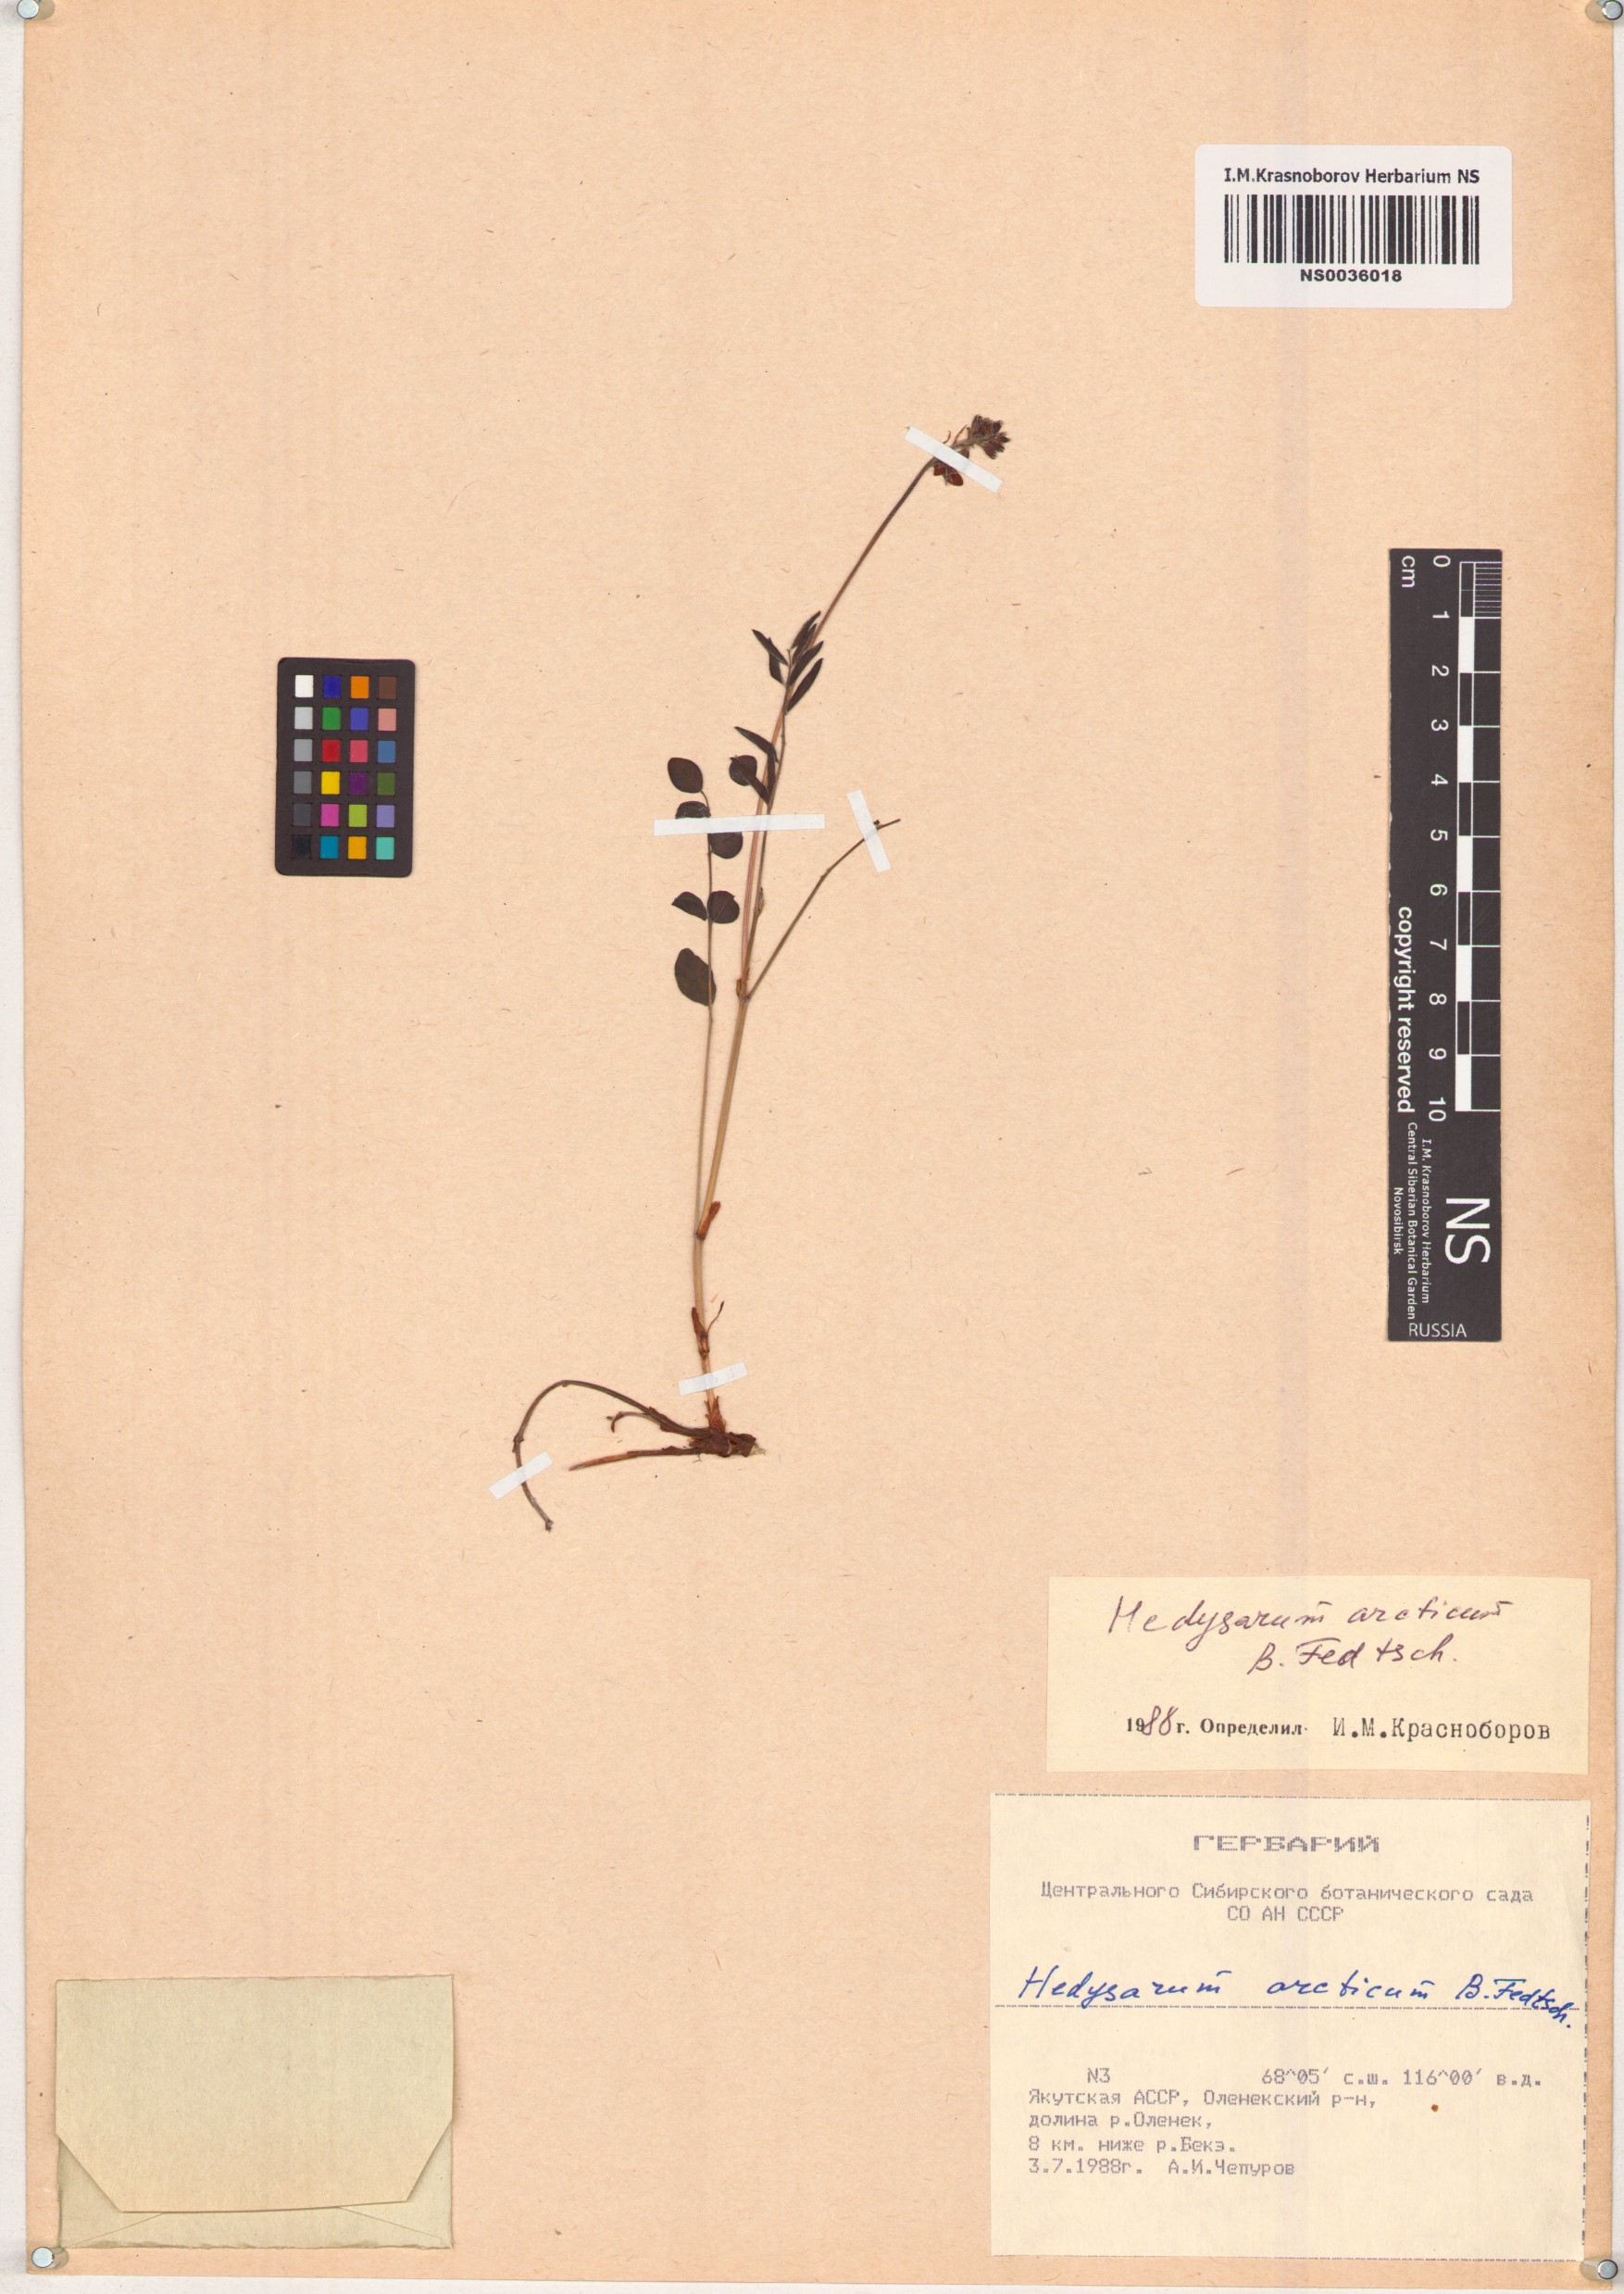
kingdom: Plantae
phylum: Tracheophyta
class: Magnoliopsida
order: Fabales
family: Fabaceae
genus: Hedysarum
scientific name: Hedysarum hedysaroides
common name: Alpine french-honeysuckle
